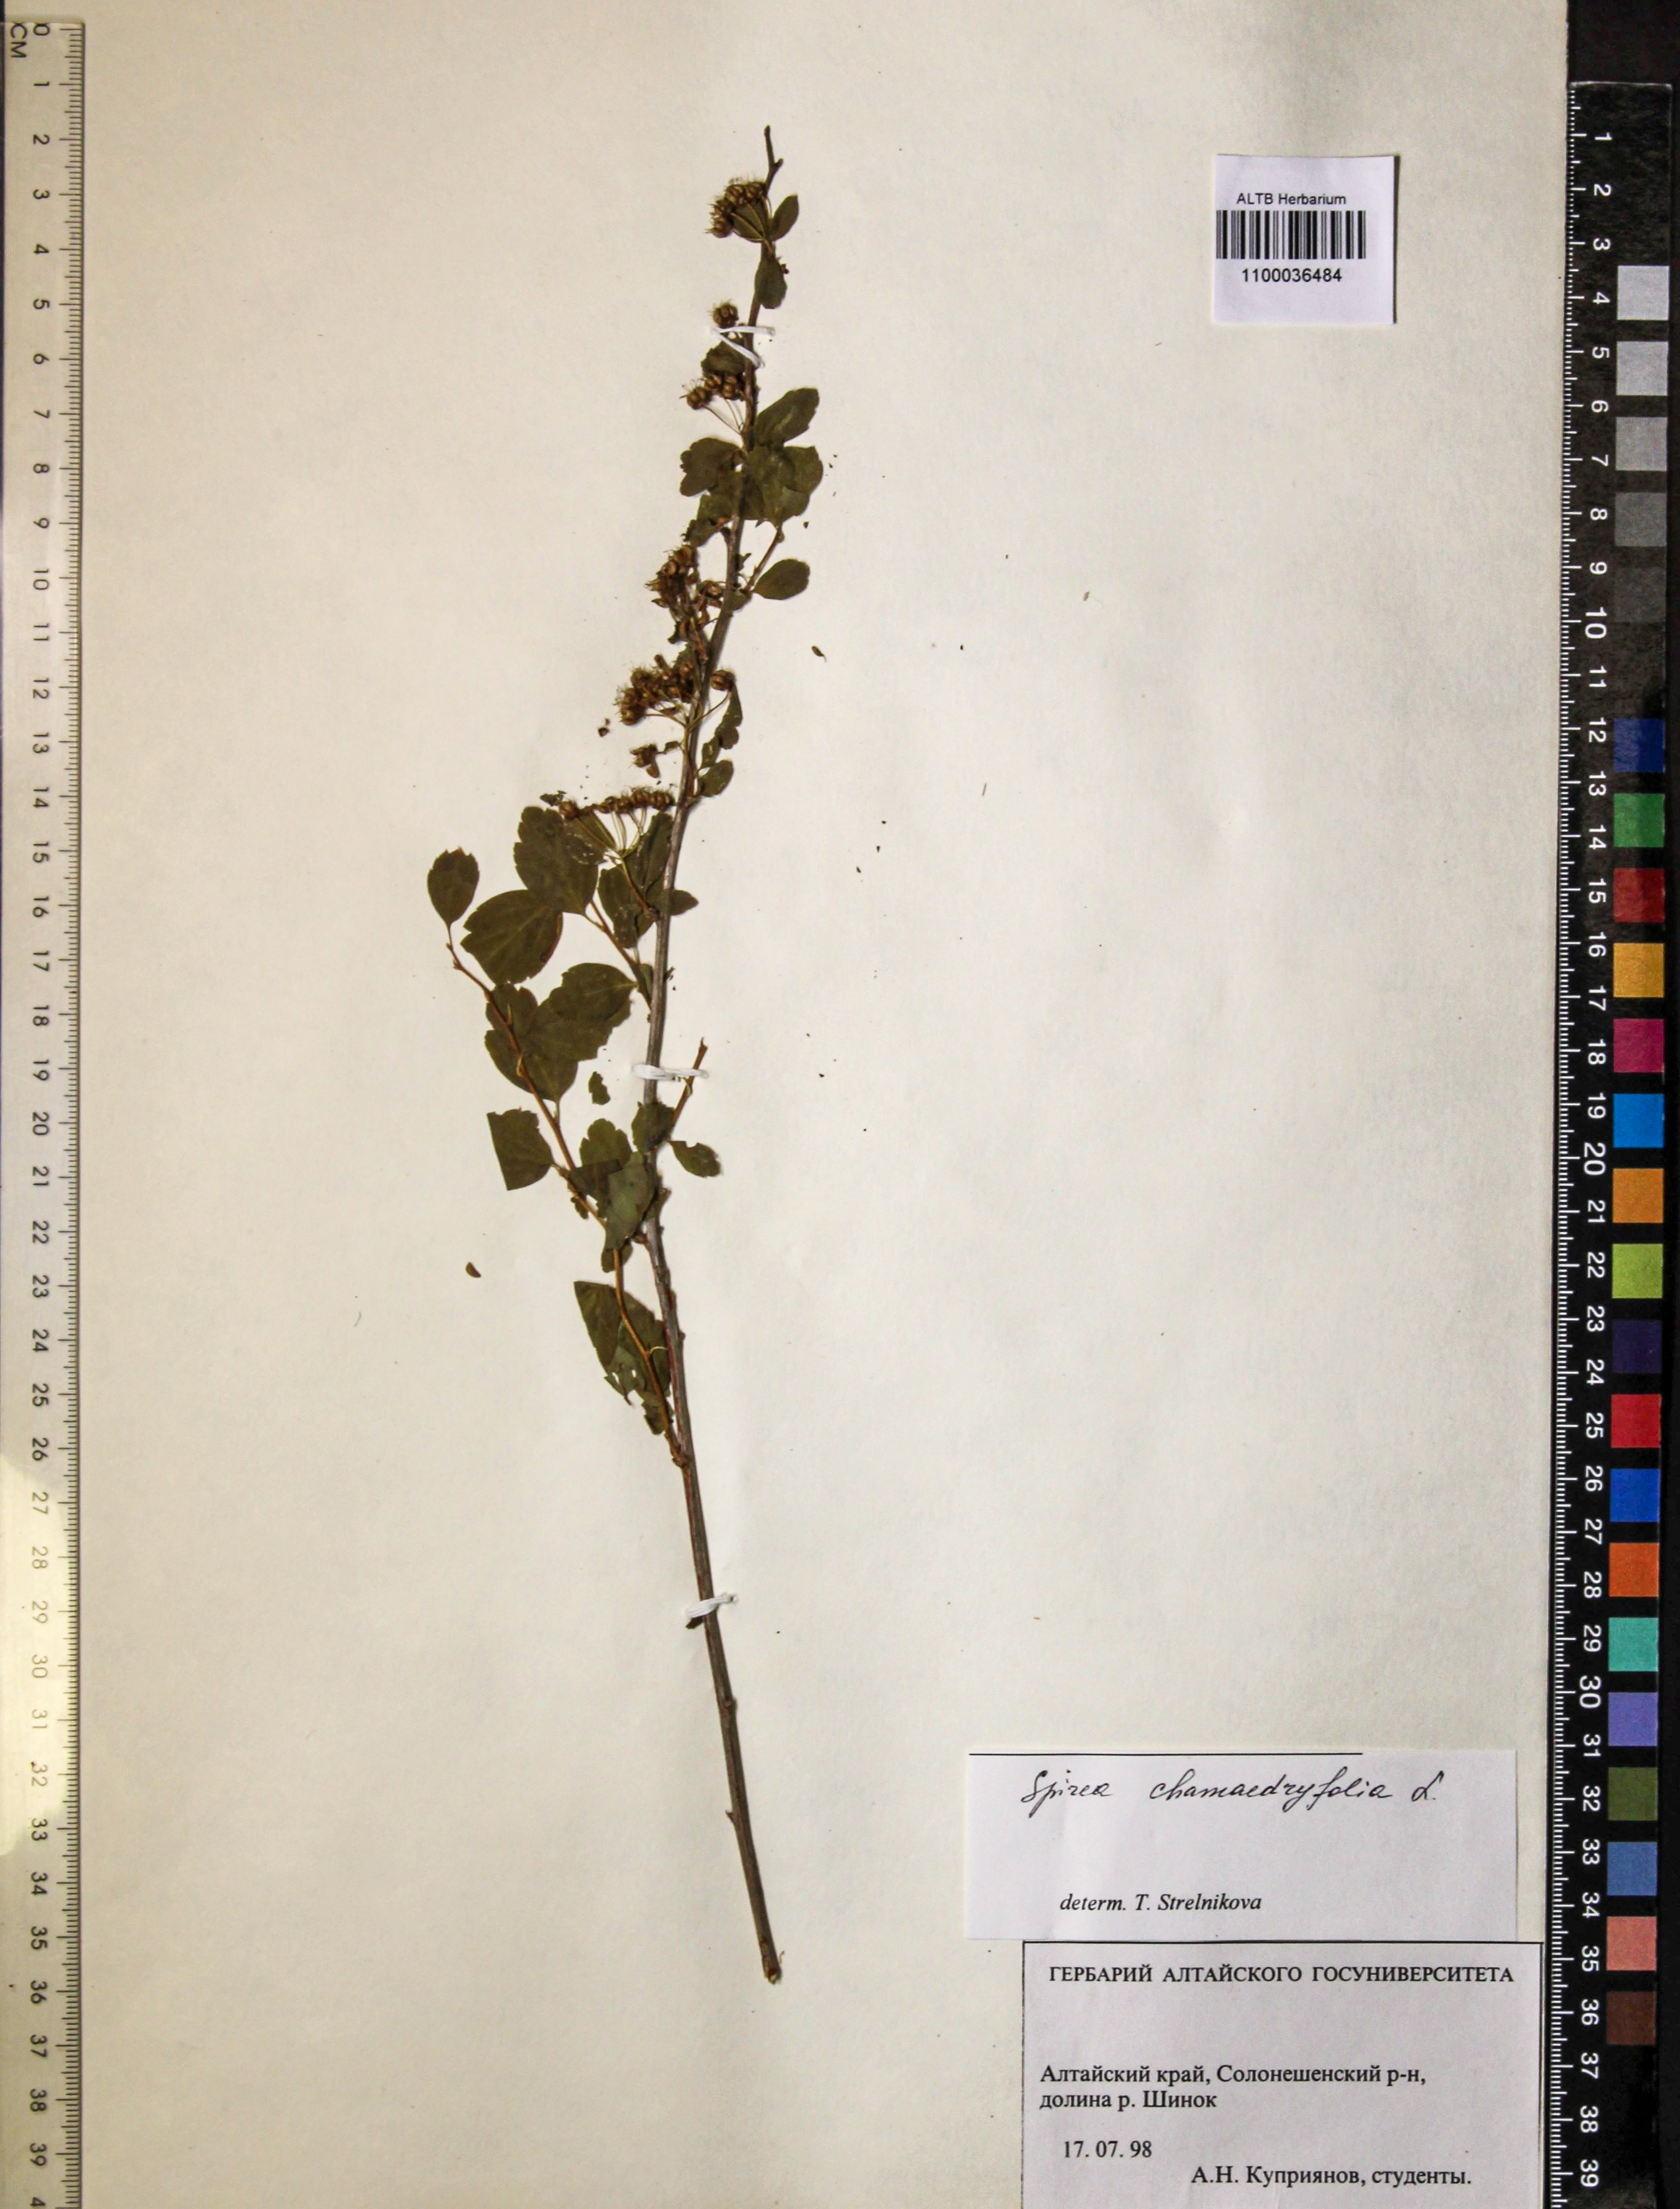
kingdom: Plantae
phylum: Tracheophyta
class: Magnoliopsida
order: Rosales
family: Rosaceae
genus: Spiraea
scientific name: Spiraea chamaedryfolia
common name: Elm-leaved spiraea
